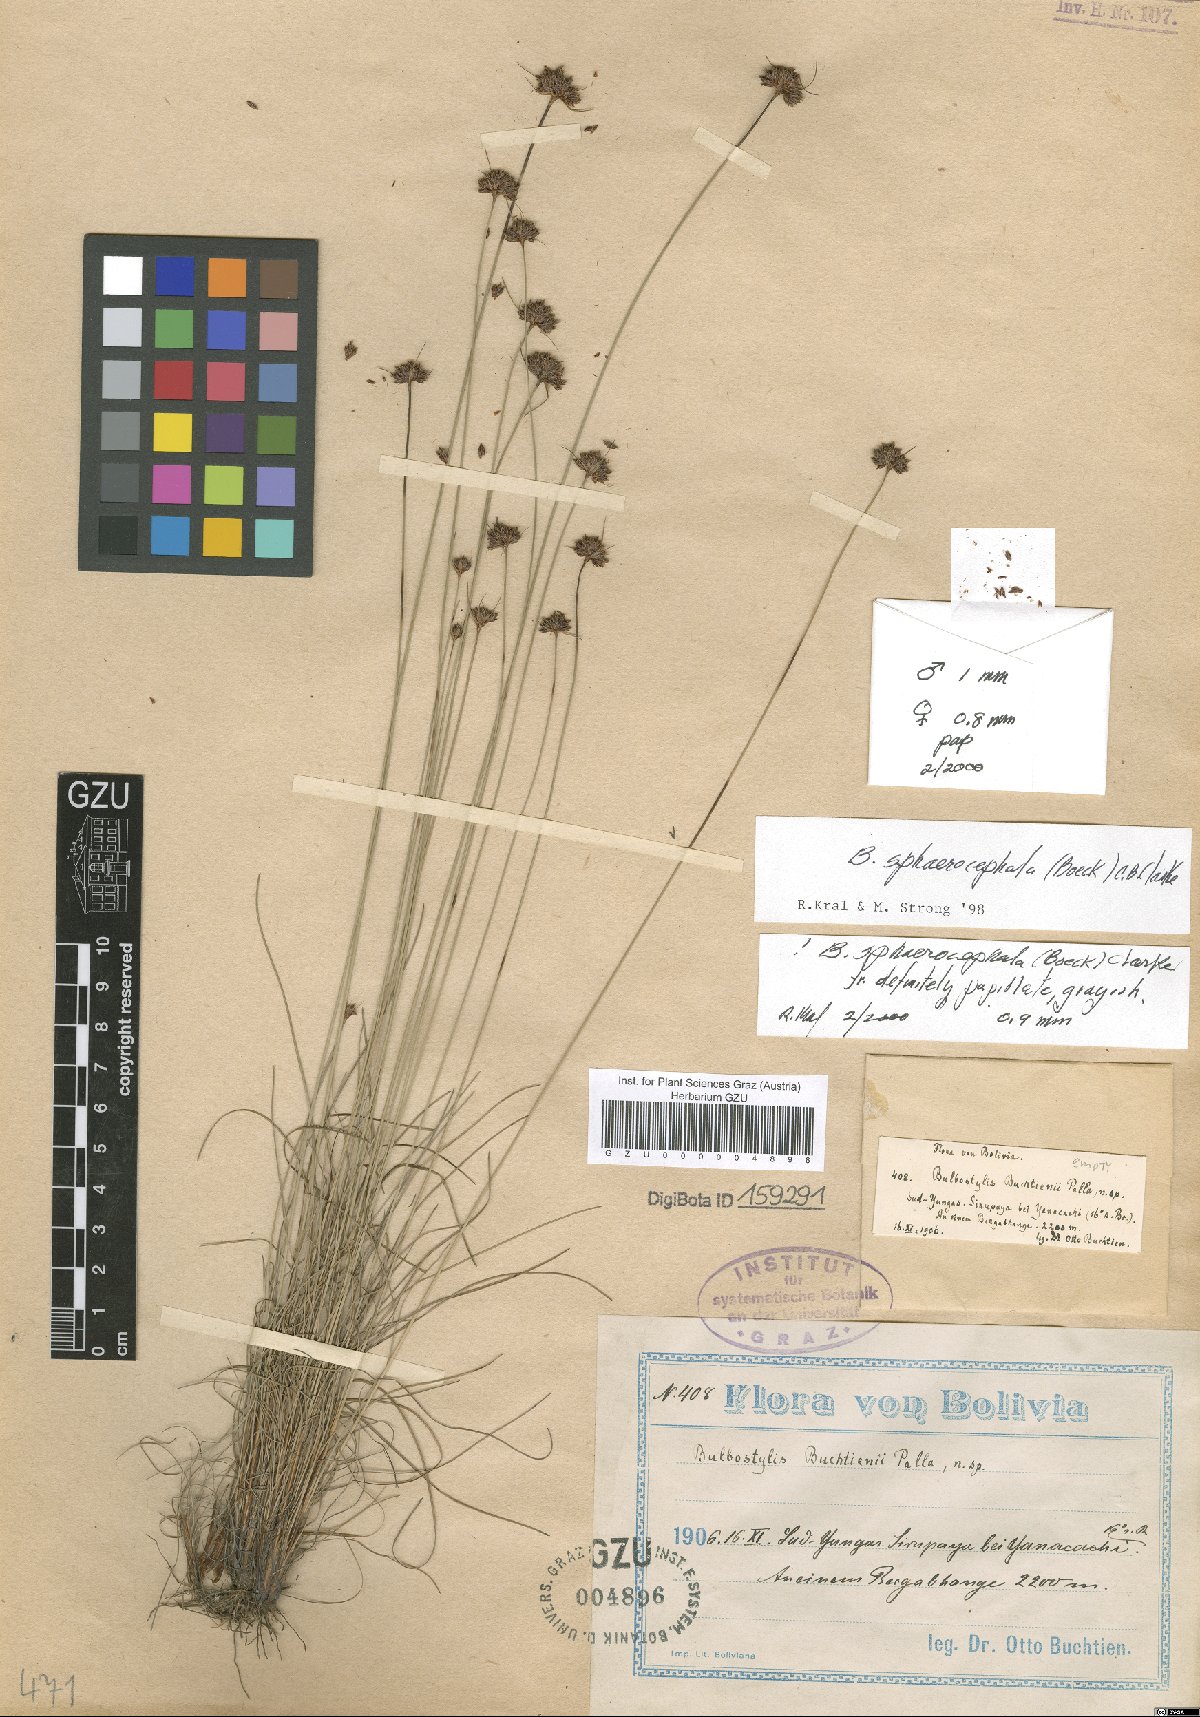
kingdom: Plantae
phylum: Tracheophyta
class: Liliopsida
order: Poales
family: Cyperaceae
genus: Eleocharis
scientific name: Eleocharis Bulbostylis buchtienii
